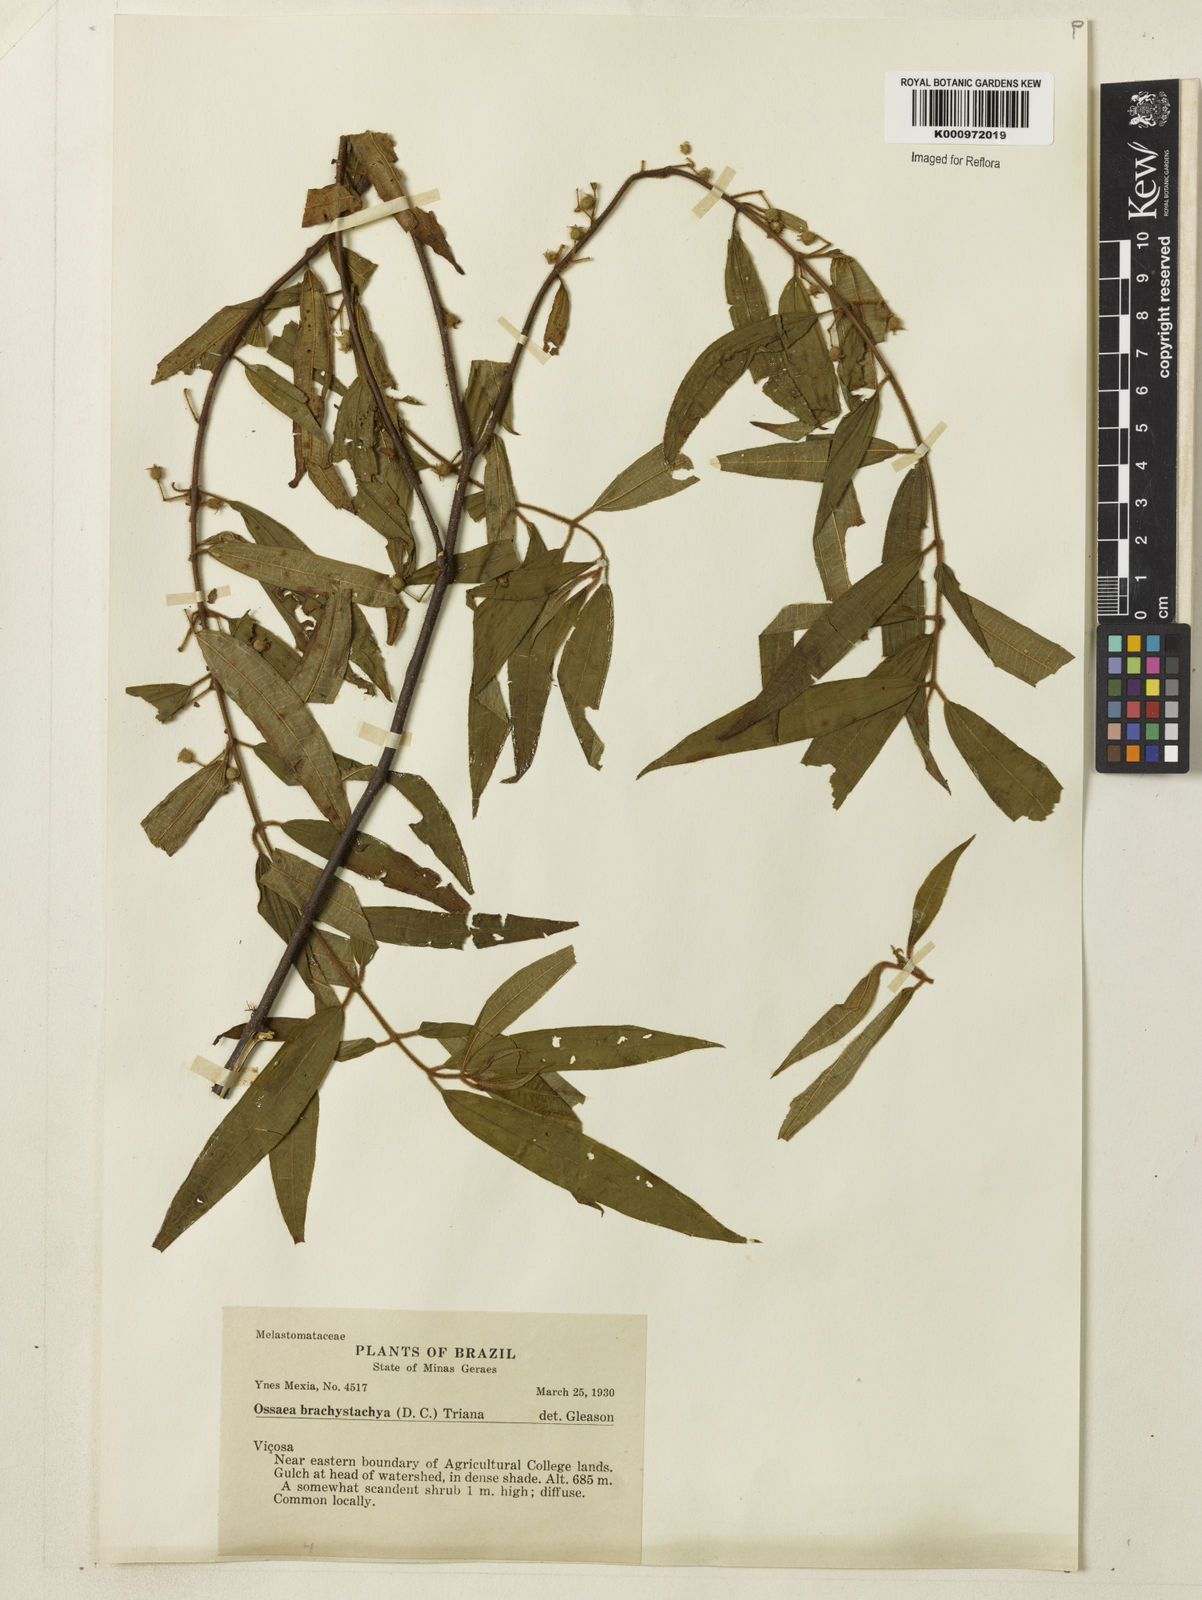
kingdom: Plantae
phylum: Tracheophyta
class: Magnoliopsida
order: Myrtales
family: Melastomataceae
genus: Miconia
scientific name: Miconia amygdaloides
